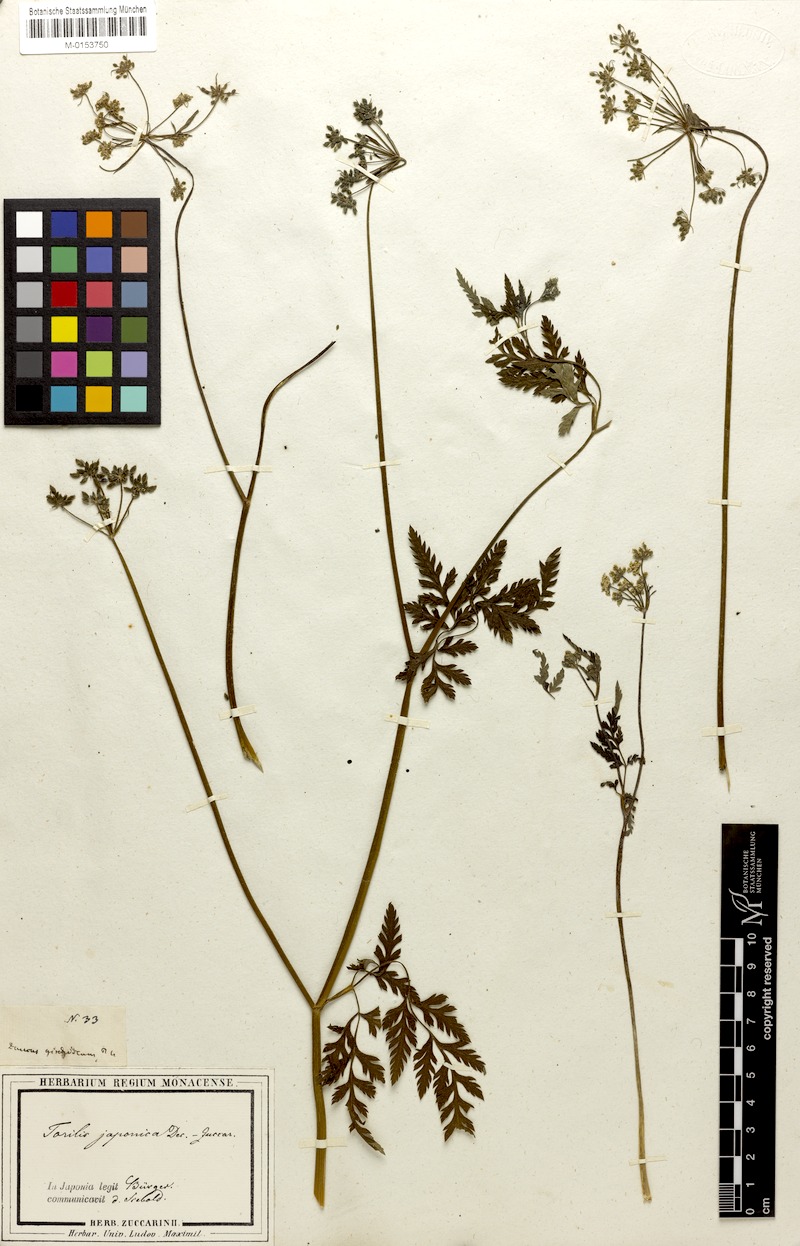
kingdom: Plantae
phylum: Tracheophyta
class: Magnoliopsida
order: Apiales
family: Apiaceae
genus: Torilis
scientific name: Torilis japonica
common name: Upright hedge-parsley
